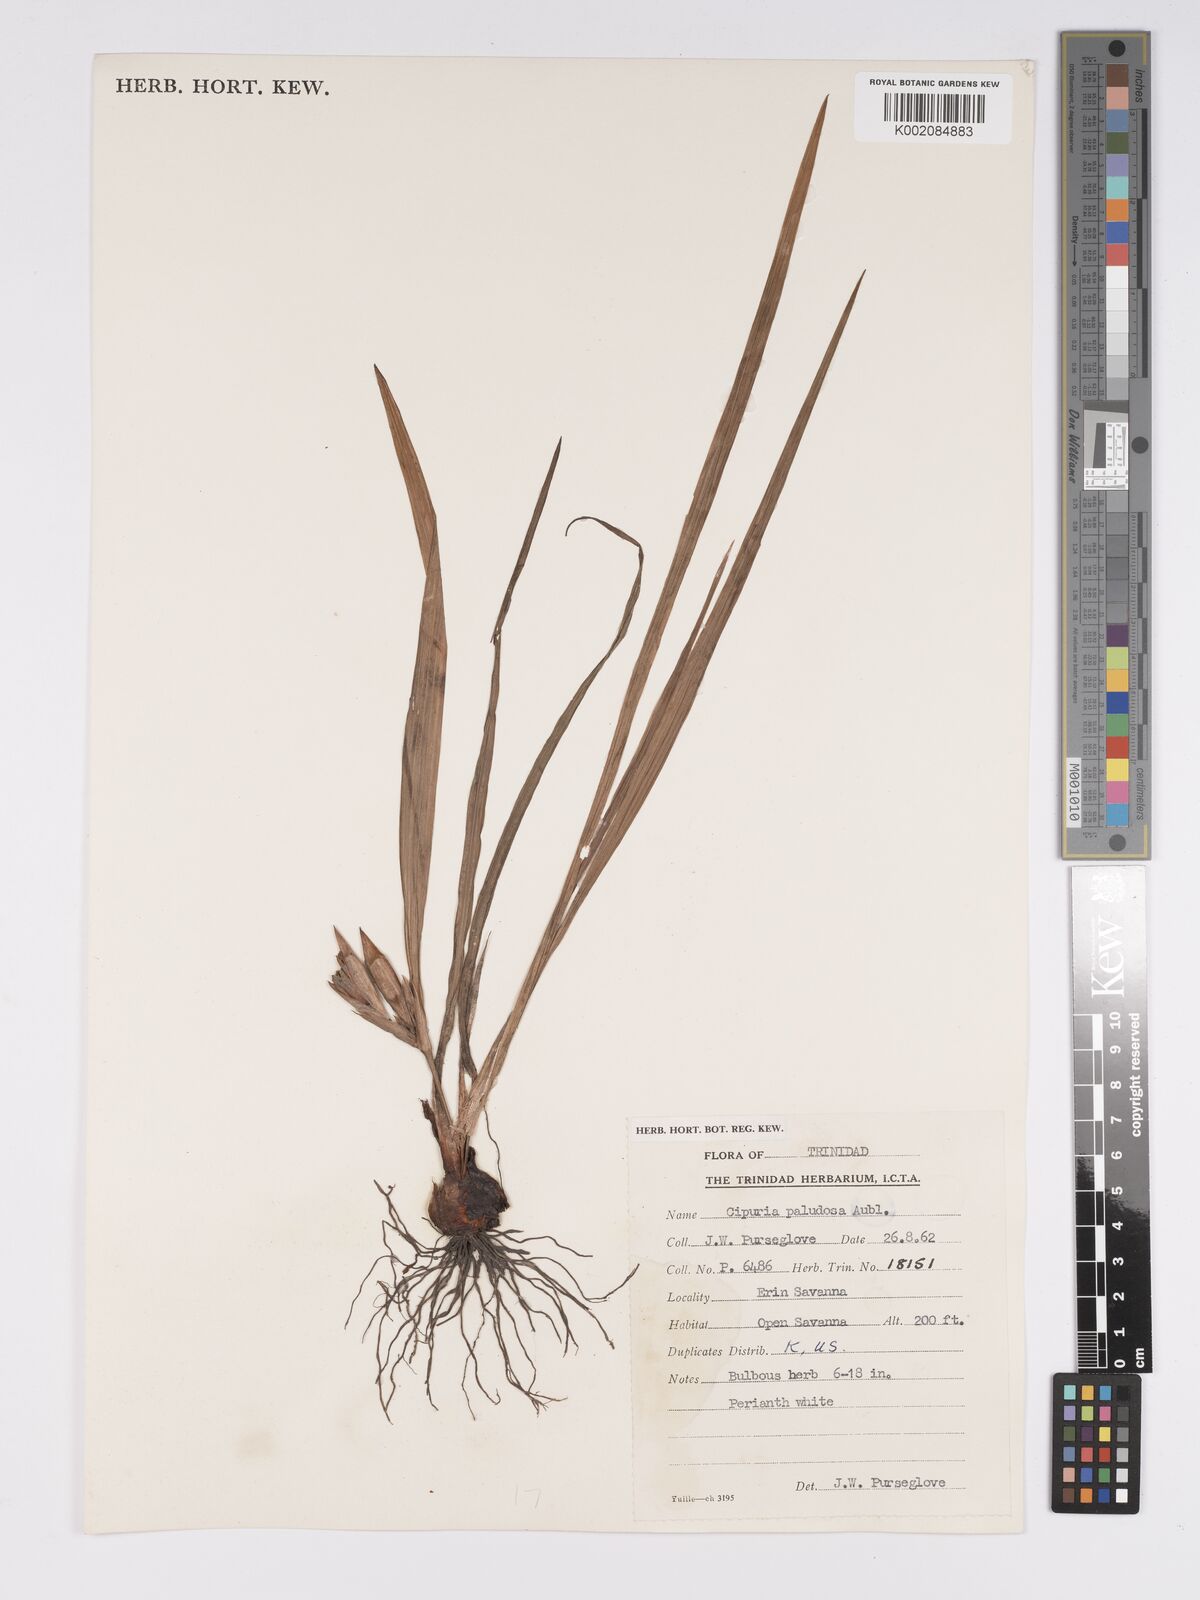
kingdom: Plantae
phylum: Tracheophyta
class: Liliopsida
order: Asparagales
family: Iridaceae
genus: Cipura
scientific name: Cipura paludosa
